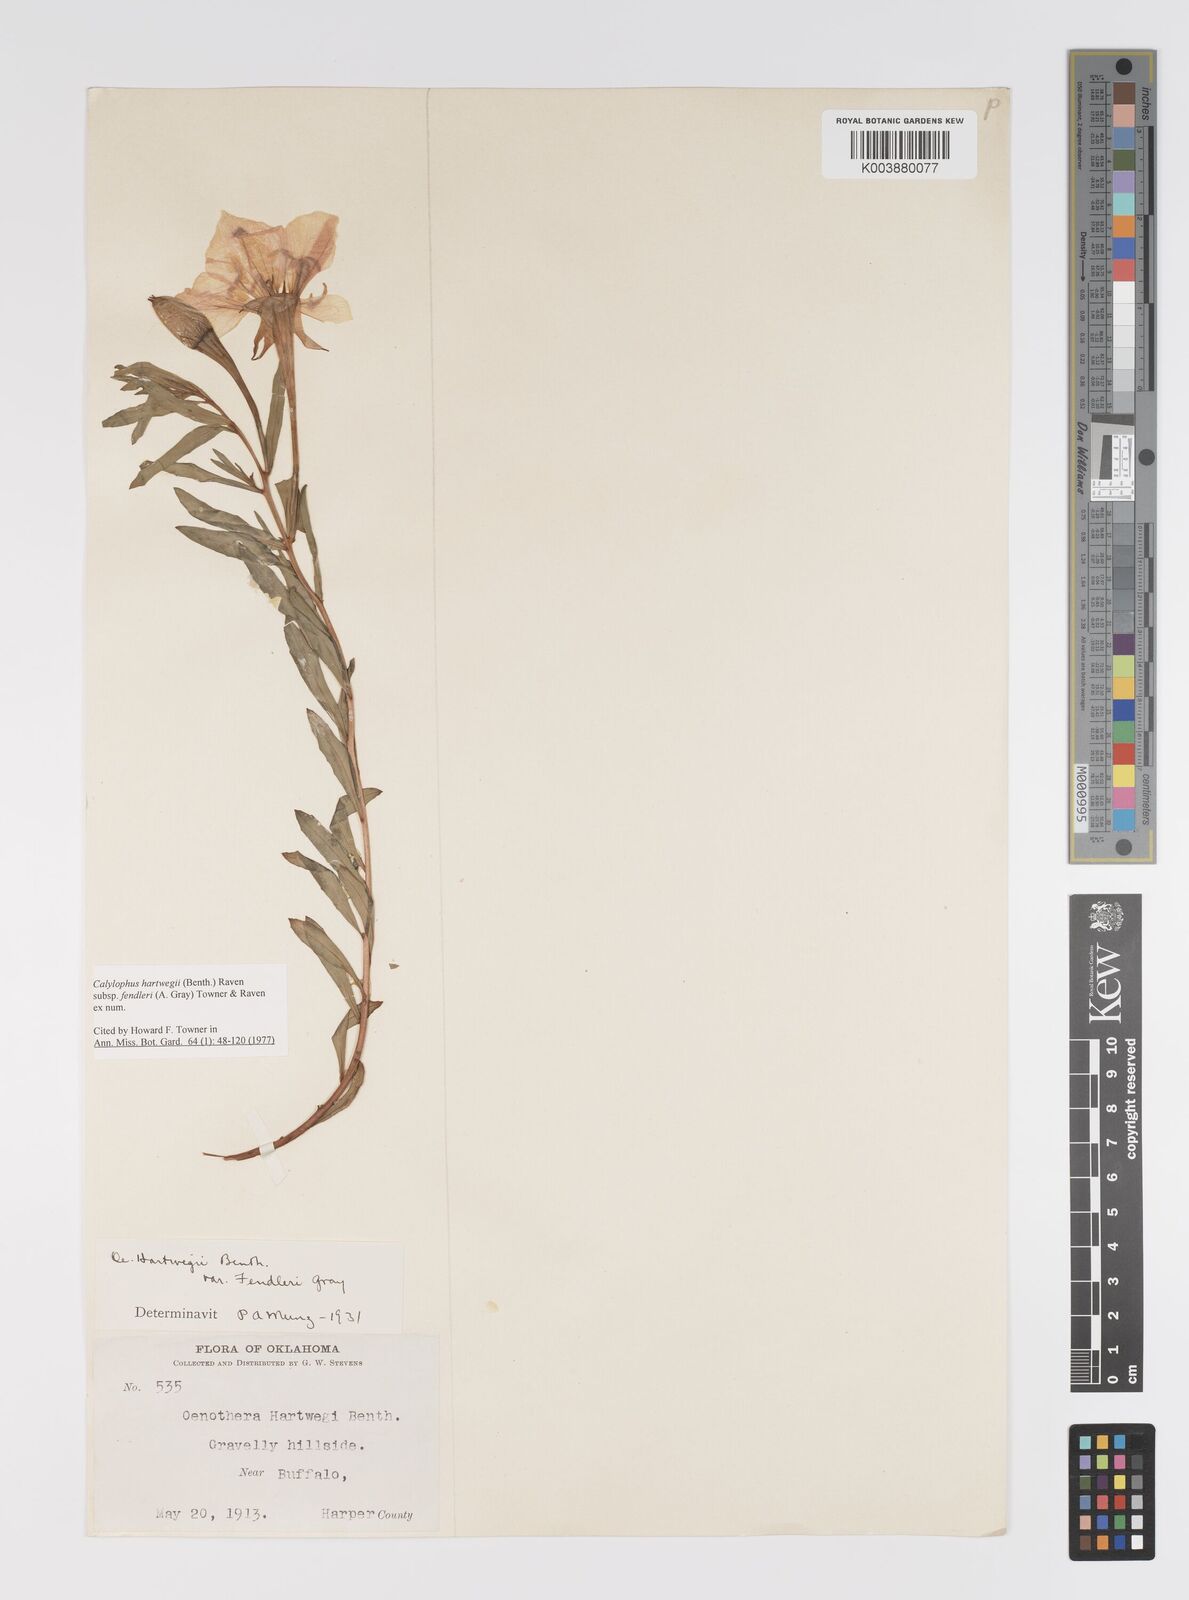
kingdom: Plantae
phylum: Tracheophyta
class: Magnoliopsida
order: Myrtales
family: Onagraceae
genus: Oenothera
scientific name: Oenothera hartwegii
